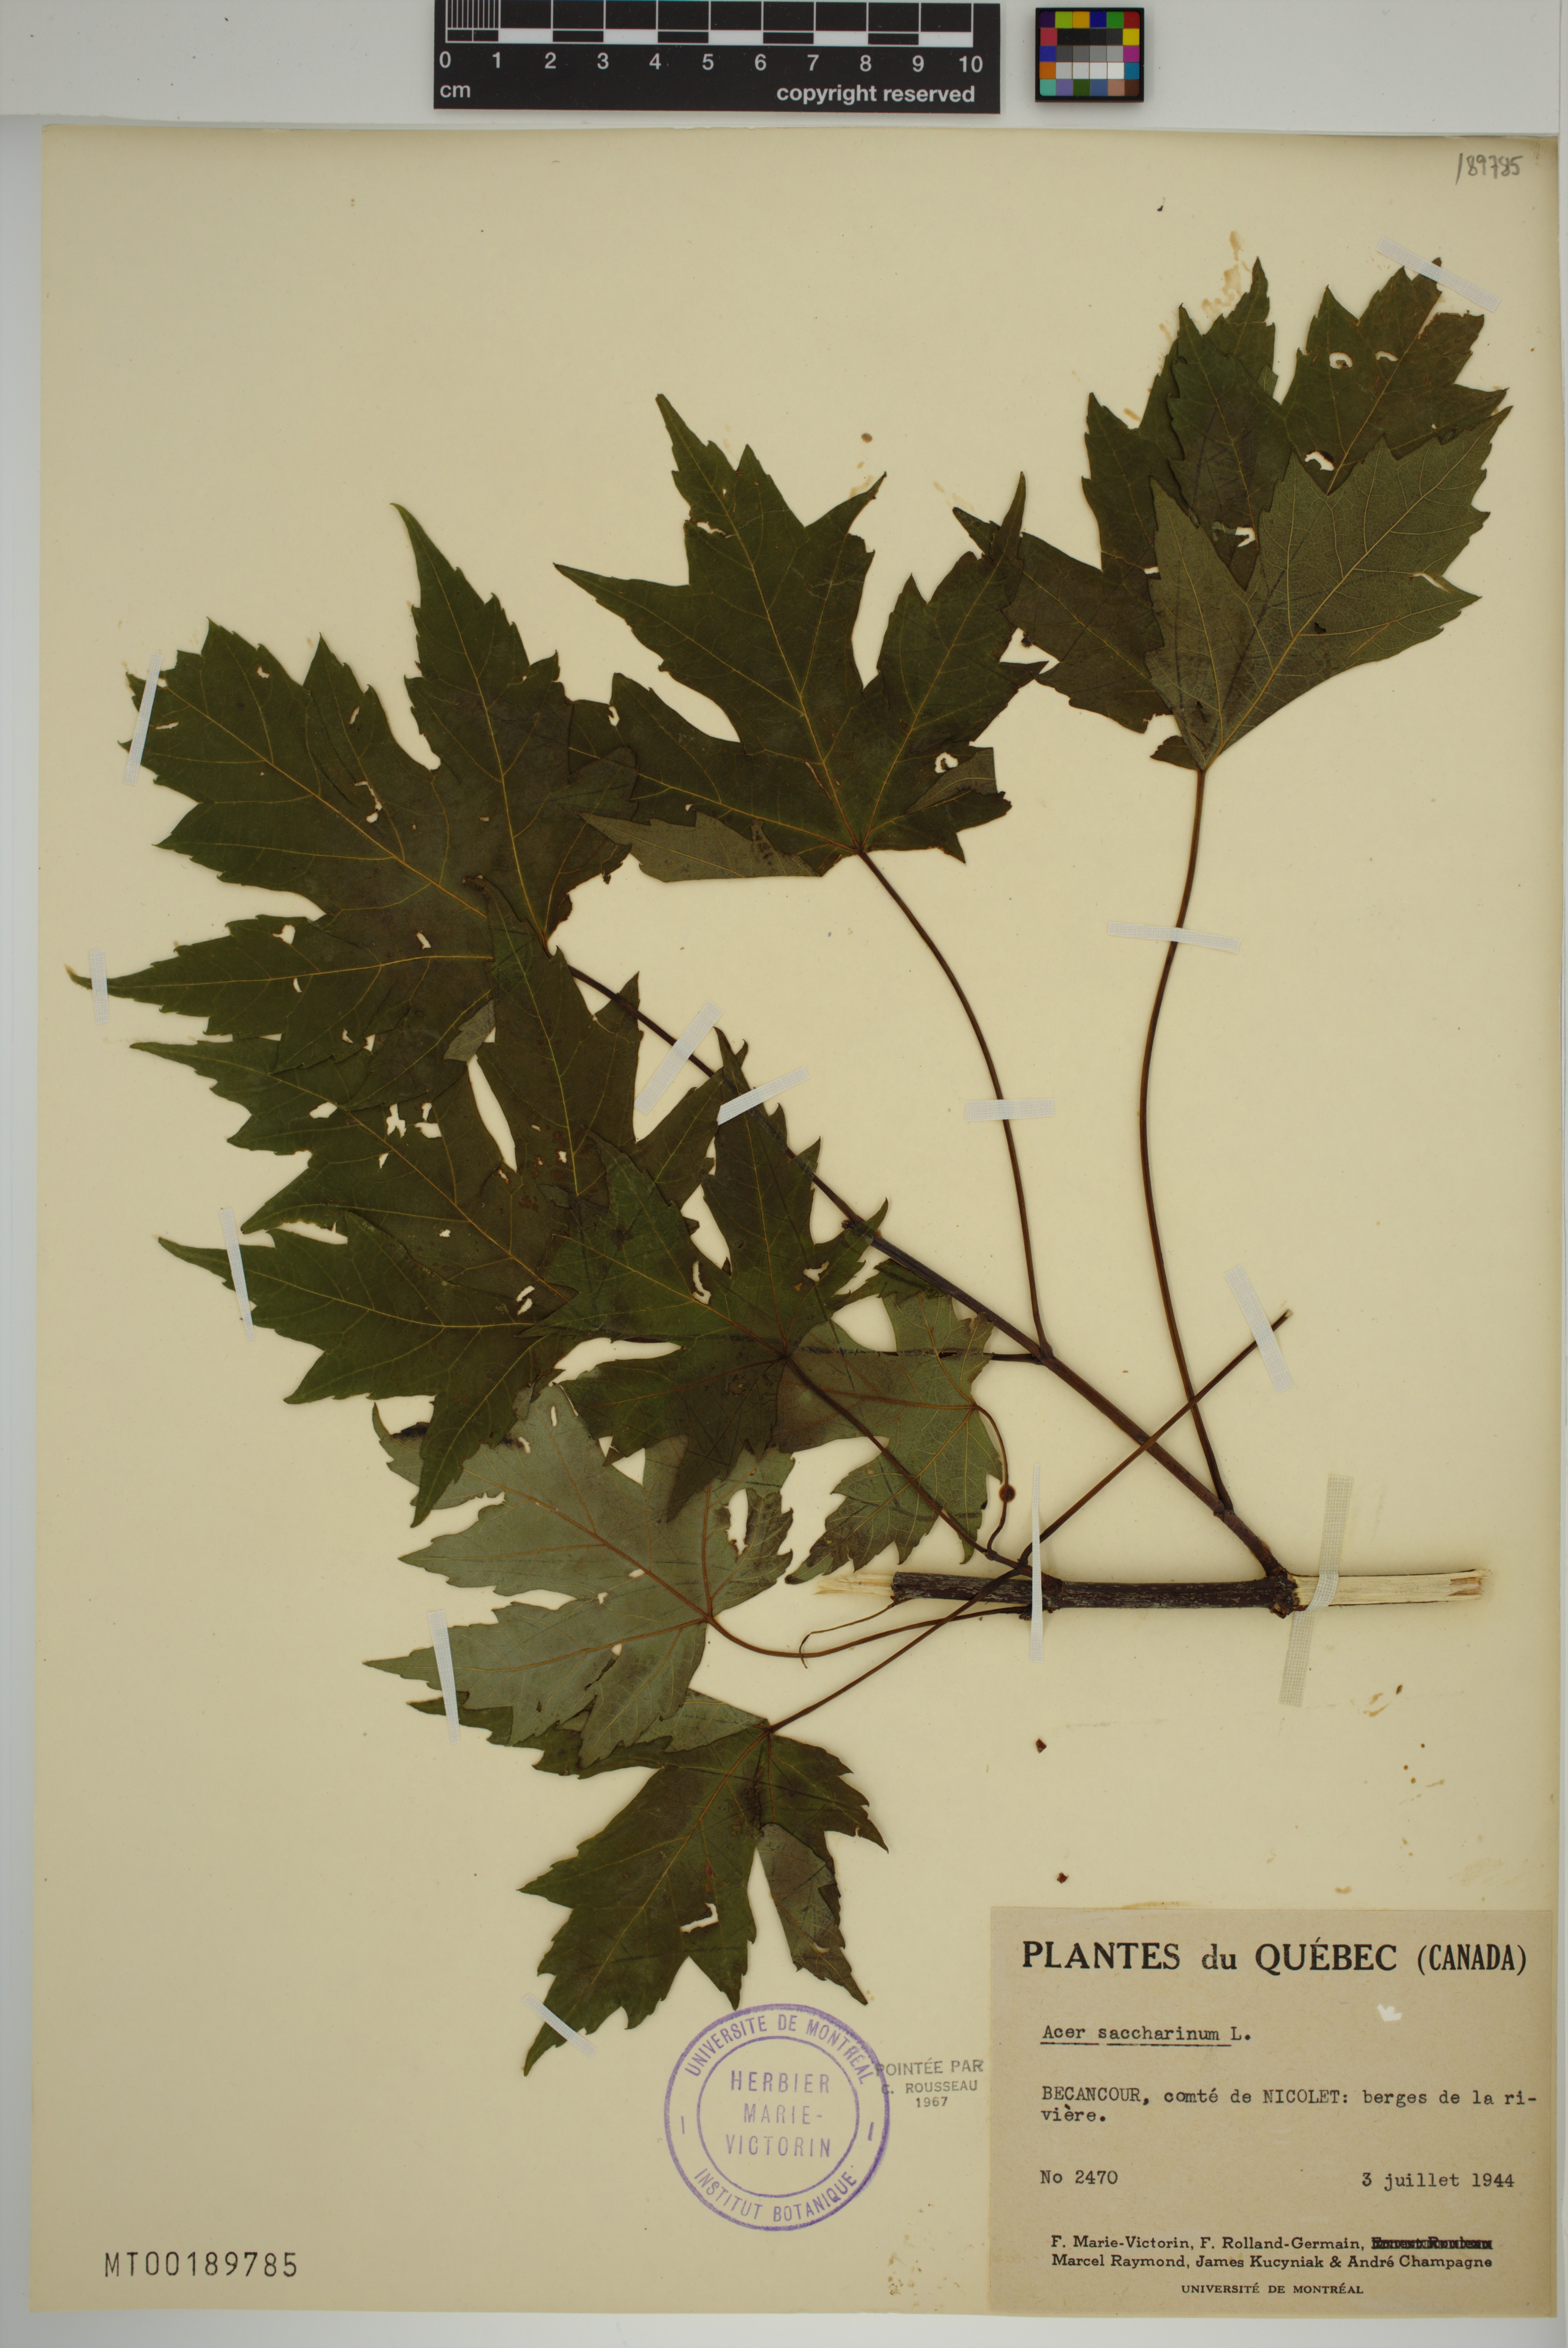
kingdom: Plantae
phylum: Tracheophyta
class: Magnoliopsida
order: Sapindales
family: Sapindaceae
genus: Acer
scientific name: Acer saccharinum
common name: Silver maple
